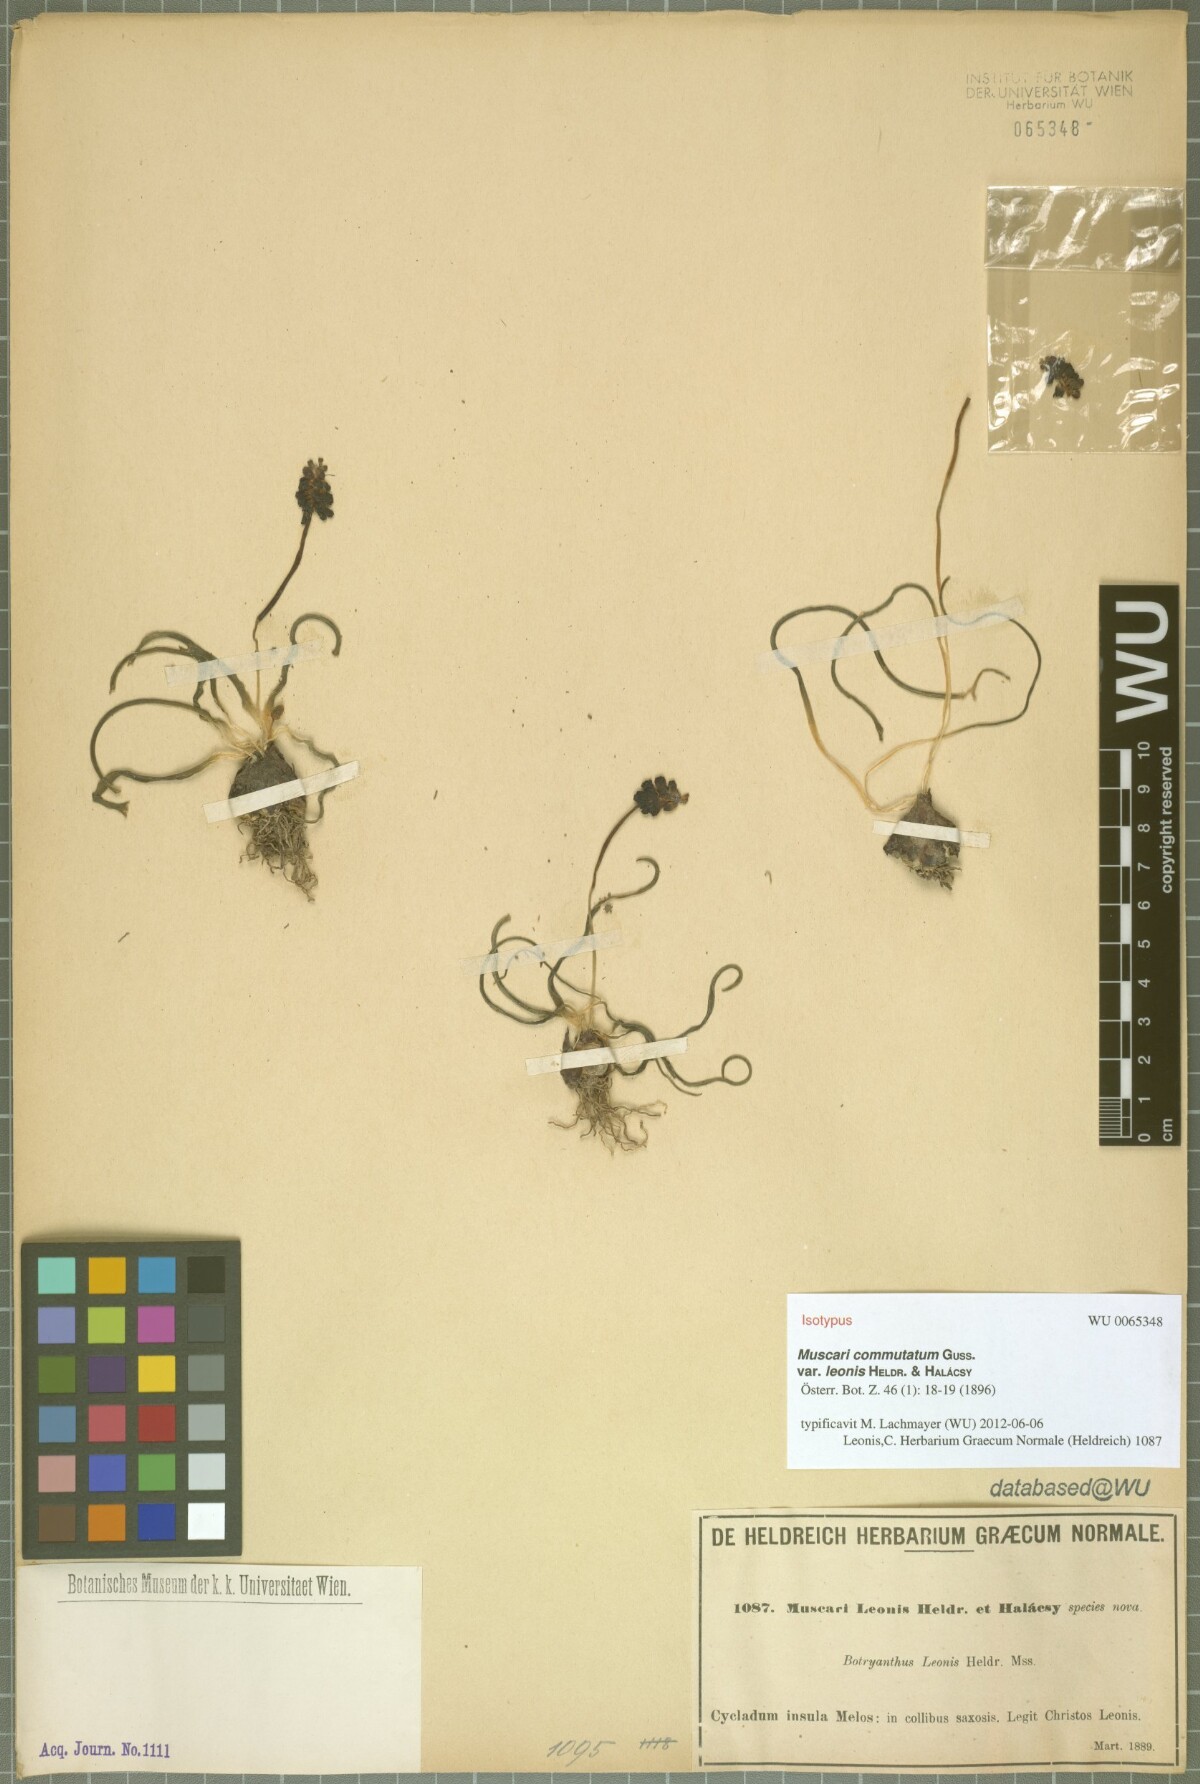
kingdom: Plantae
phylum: Tracheophyta
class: Liliopsida
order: Asparagales
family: Asparagaceae
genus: Muscari
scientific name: Muscari commutatum
